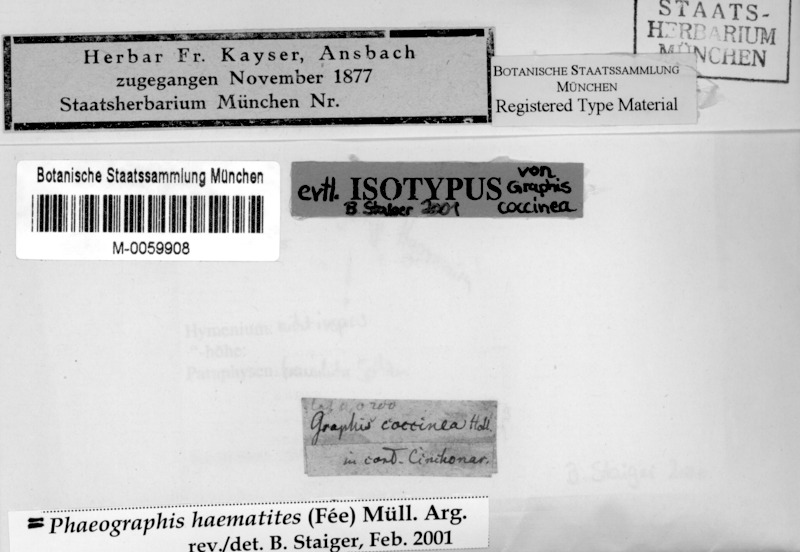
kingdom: Fungi
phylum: Ascomycota
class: Lecanoromycetes
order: Ostropales
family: Graphidaceae
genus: Phaeographis
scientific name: Phaeographis haematites
